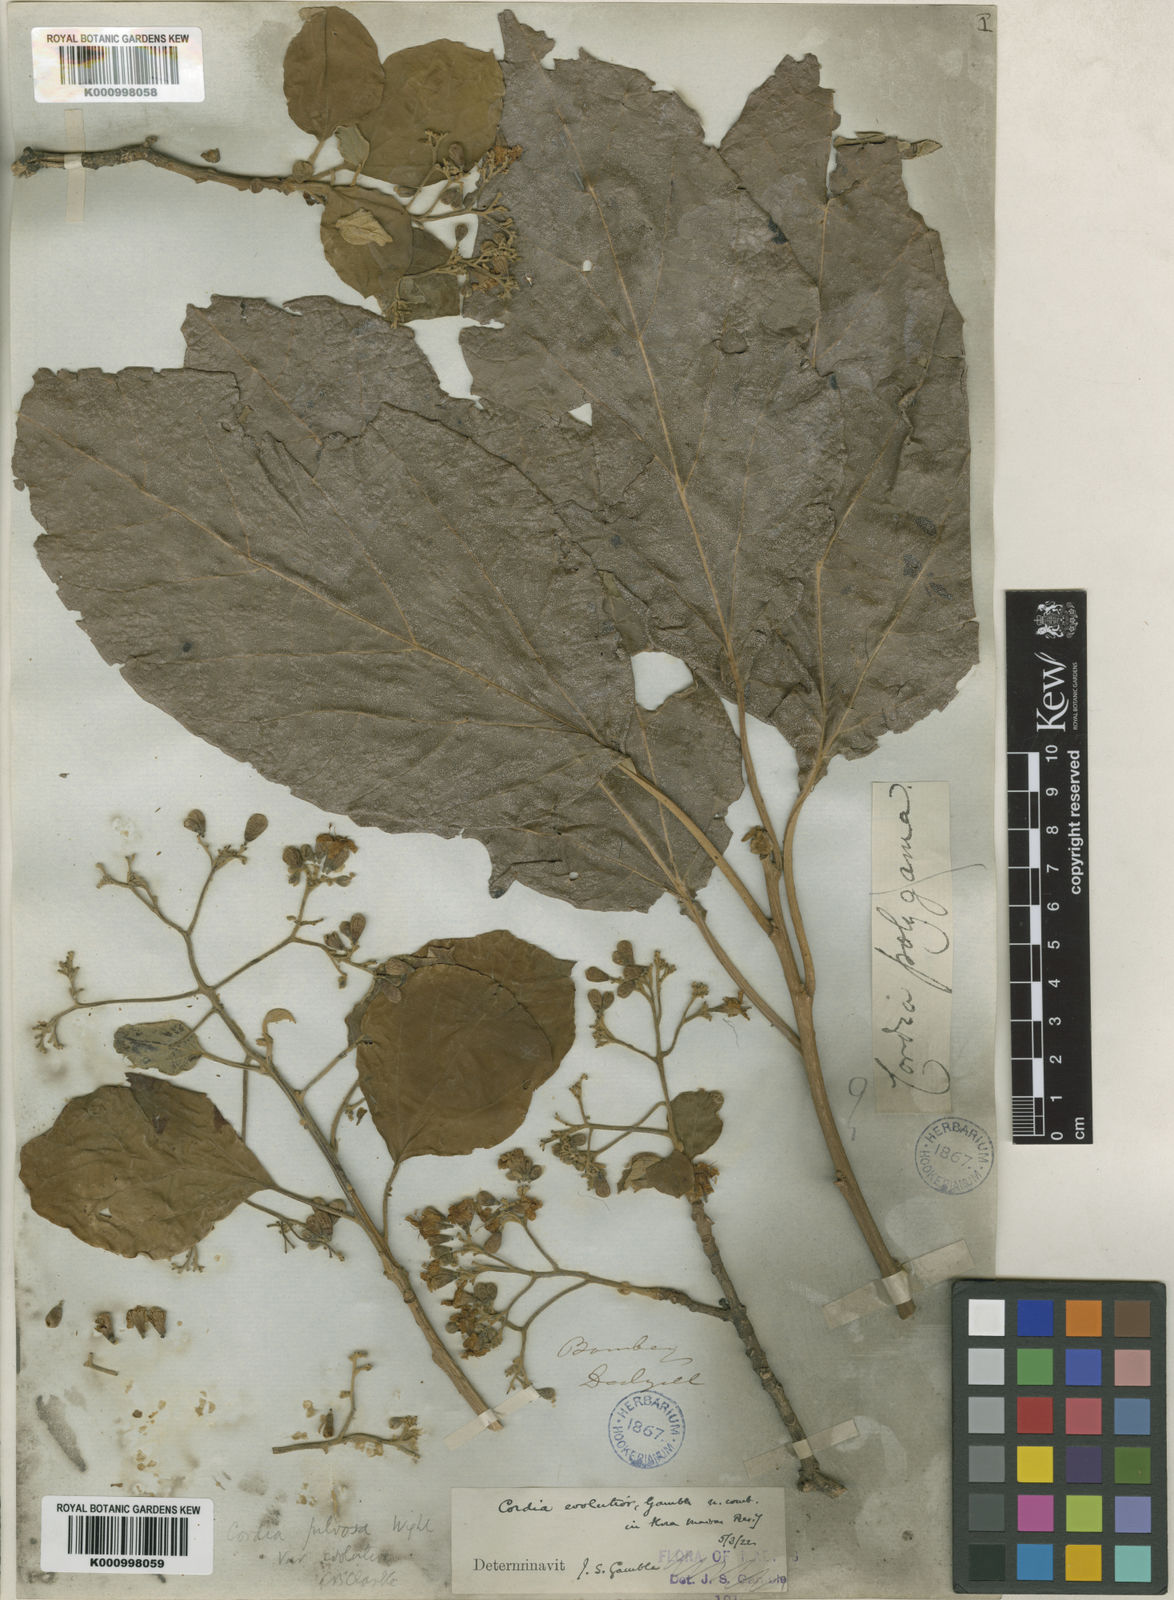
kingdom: Plantae
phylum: Tracheophyta
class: Magnoliopsida
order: Boraginales
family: Cordiaceae
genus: Cordia
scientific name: Cordia myxa
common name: Assyrian plum
